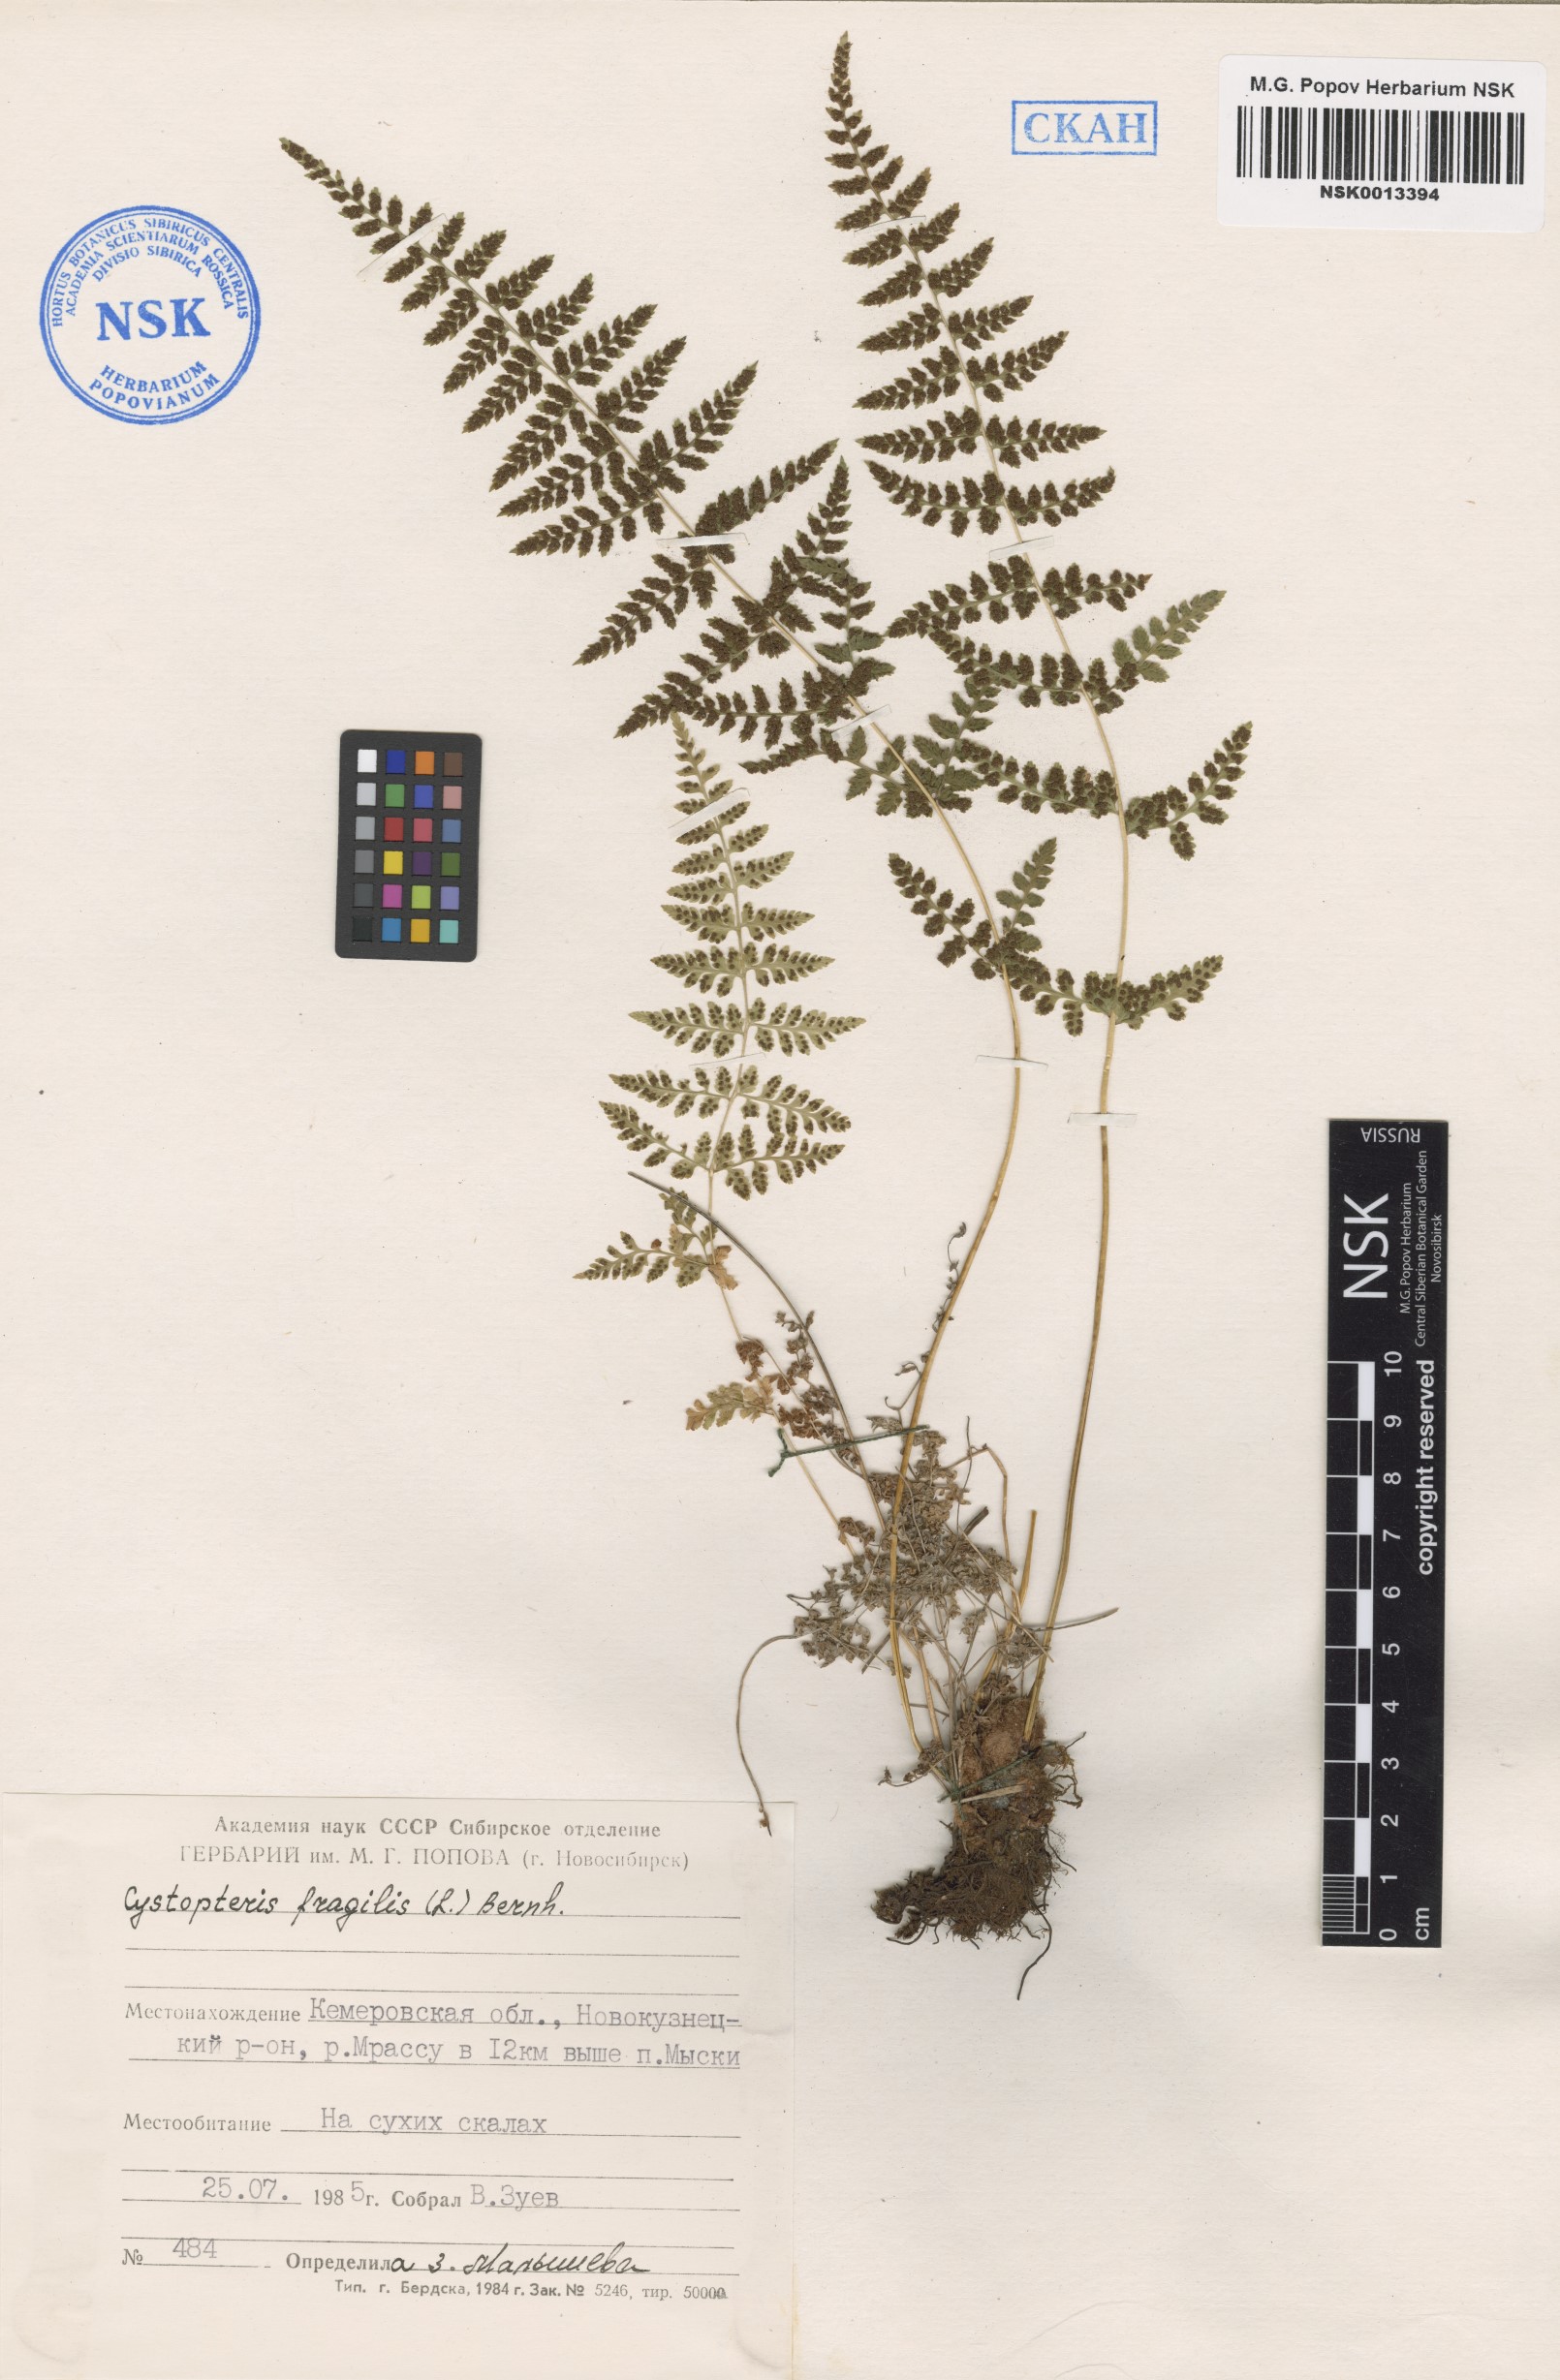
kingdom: Plantae
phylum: Tracheophyta
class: Polypodiopsida
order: Polypodiales
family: Cystopteridaceae
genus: Cystopteris
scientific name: Cystopteris fragilis
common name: Brittle bladder fern
